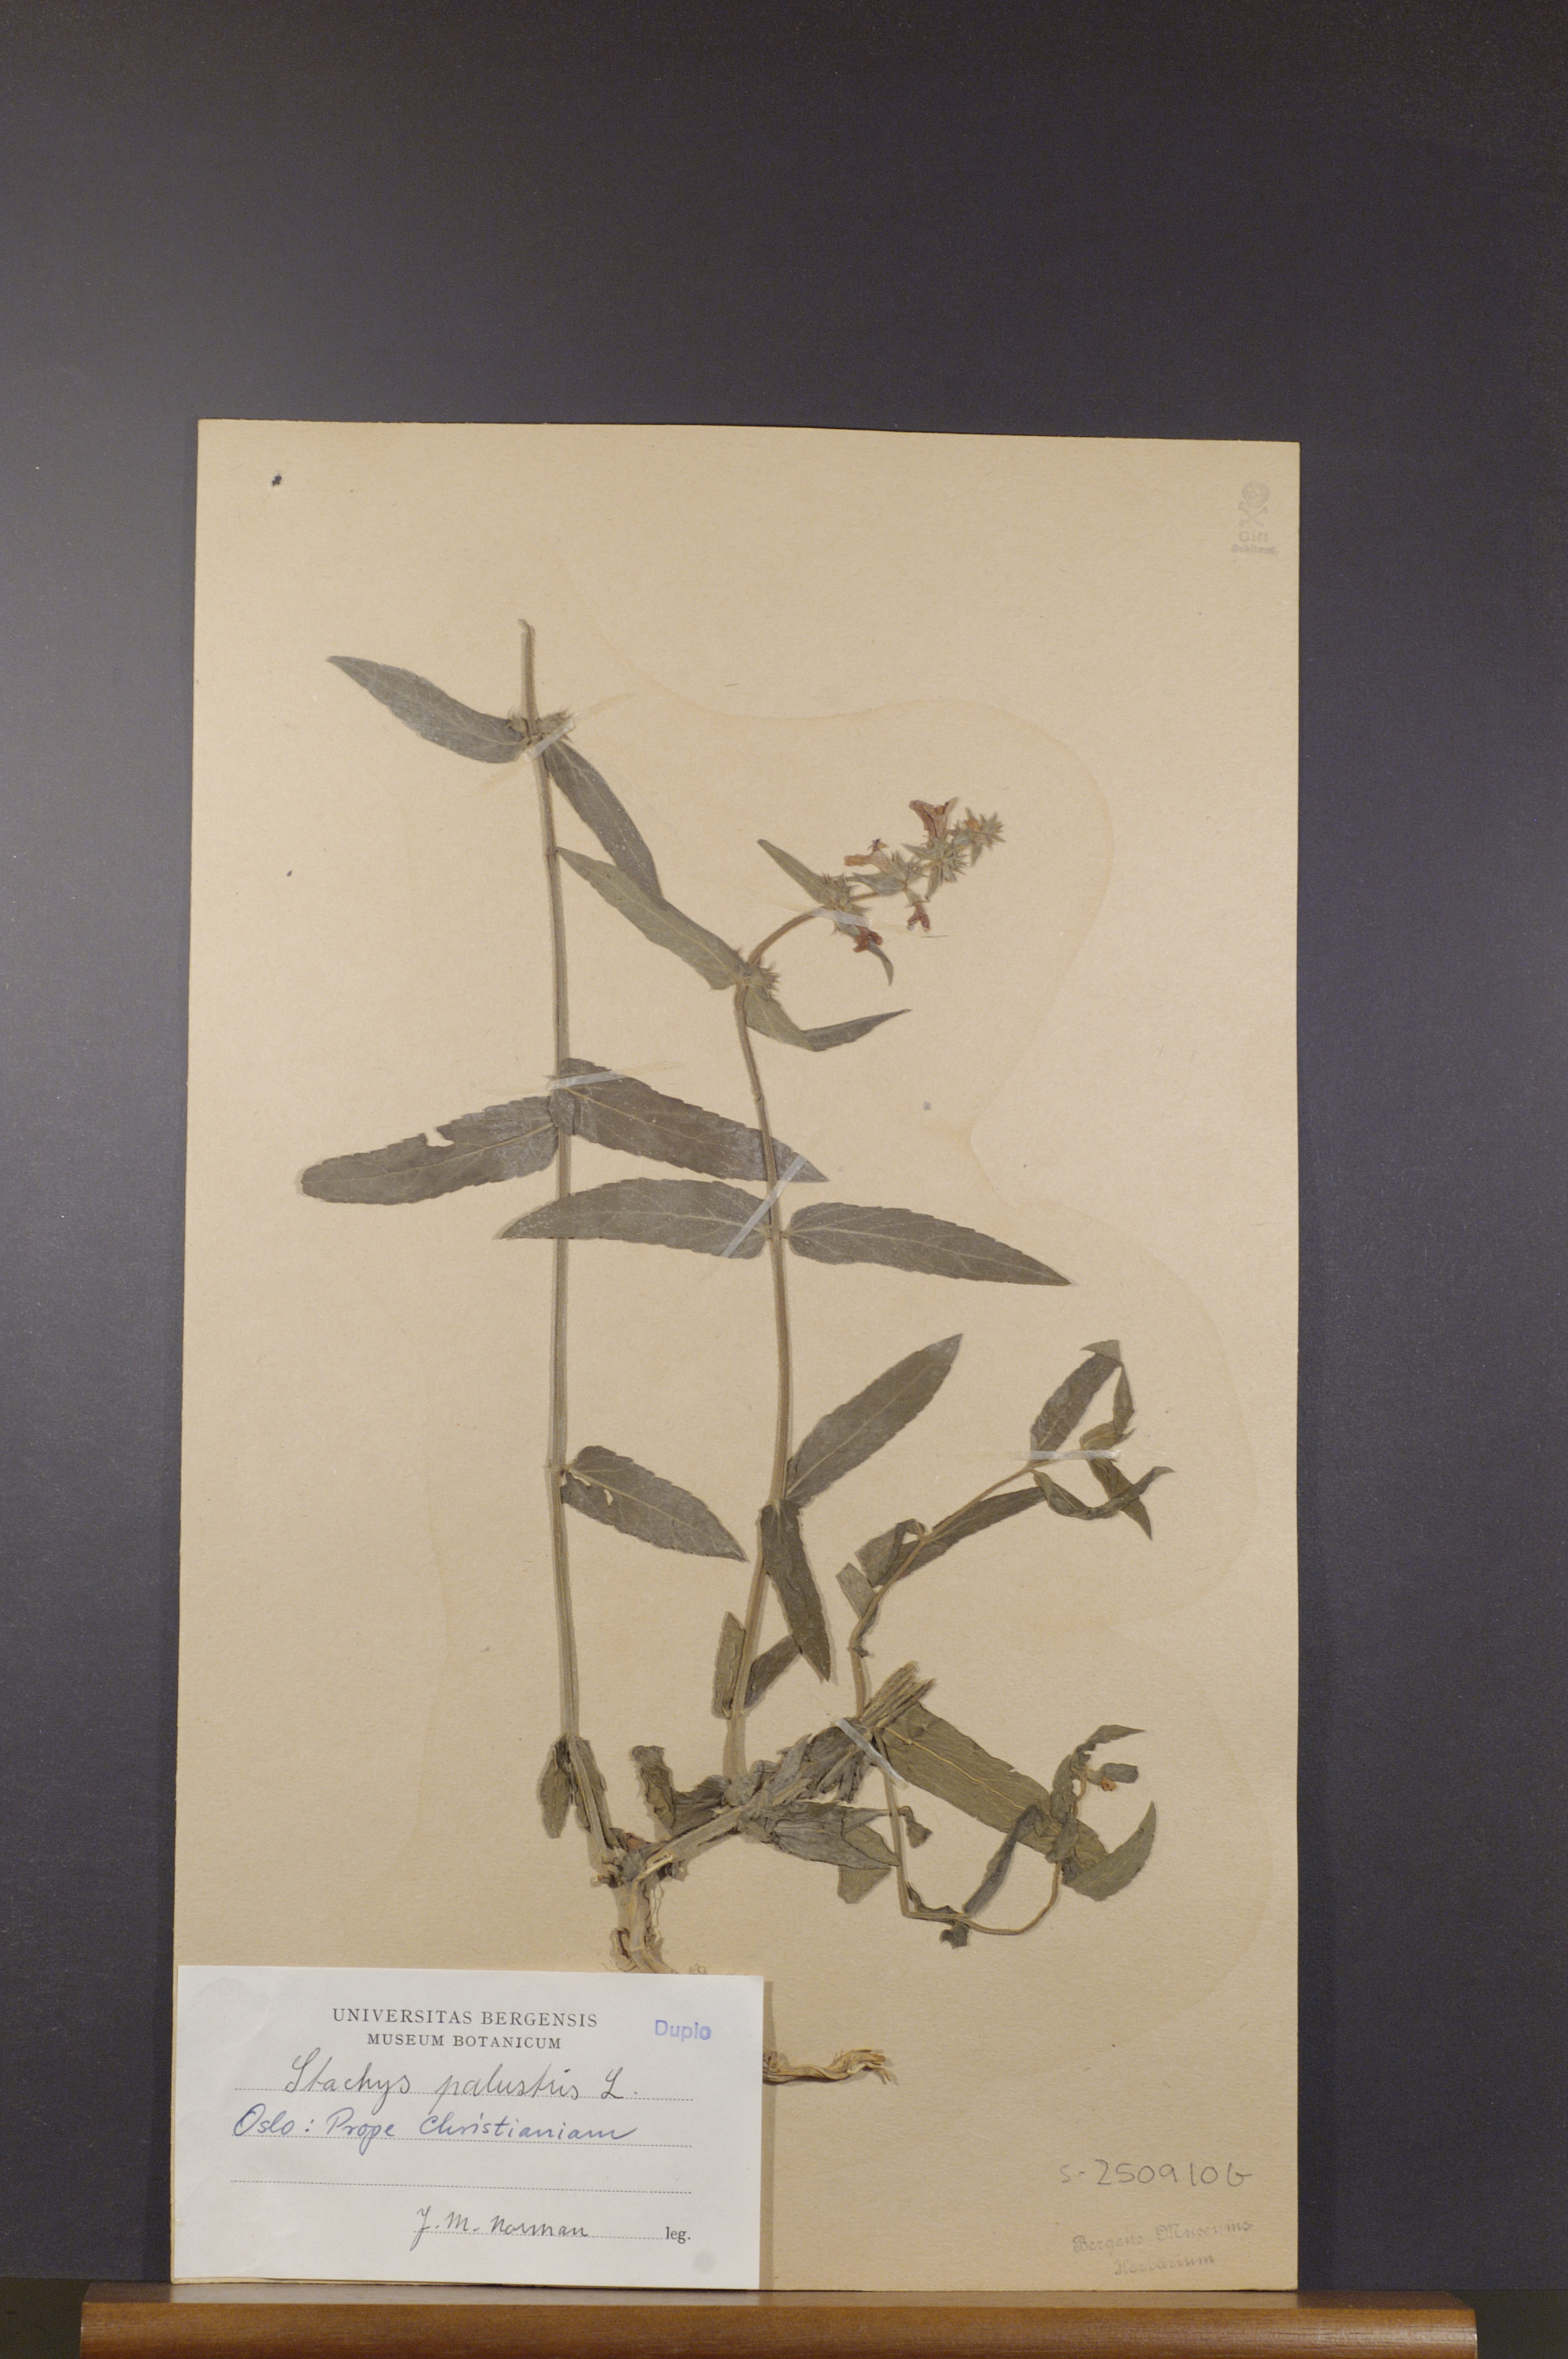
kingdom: Plantae
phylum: Tracheophyta
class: Magnoliopsida
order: Lamiales
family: Lamiaceae
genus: Stachys
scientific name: Stachys palustris
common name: Marsh woundwort
